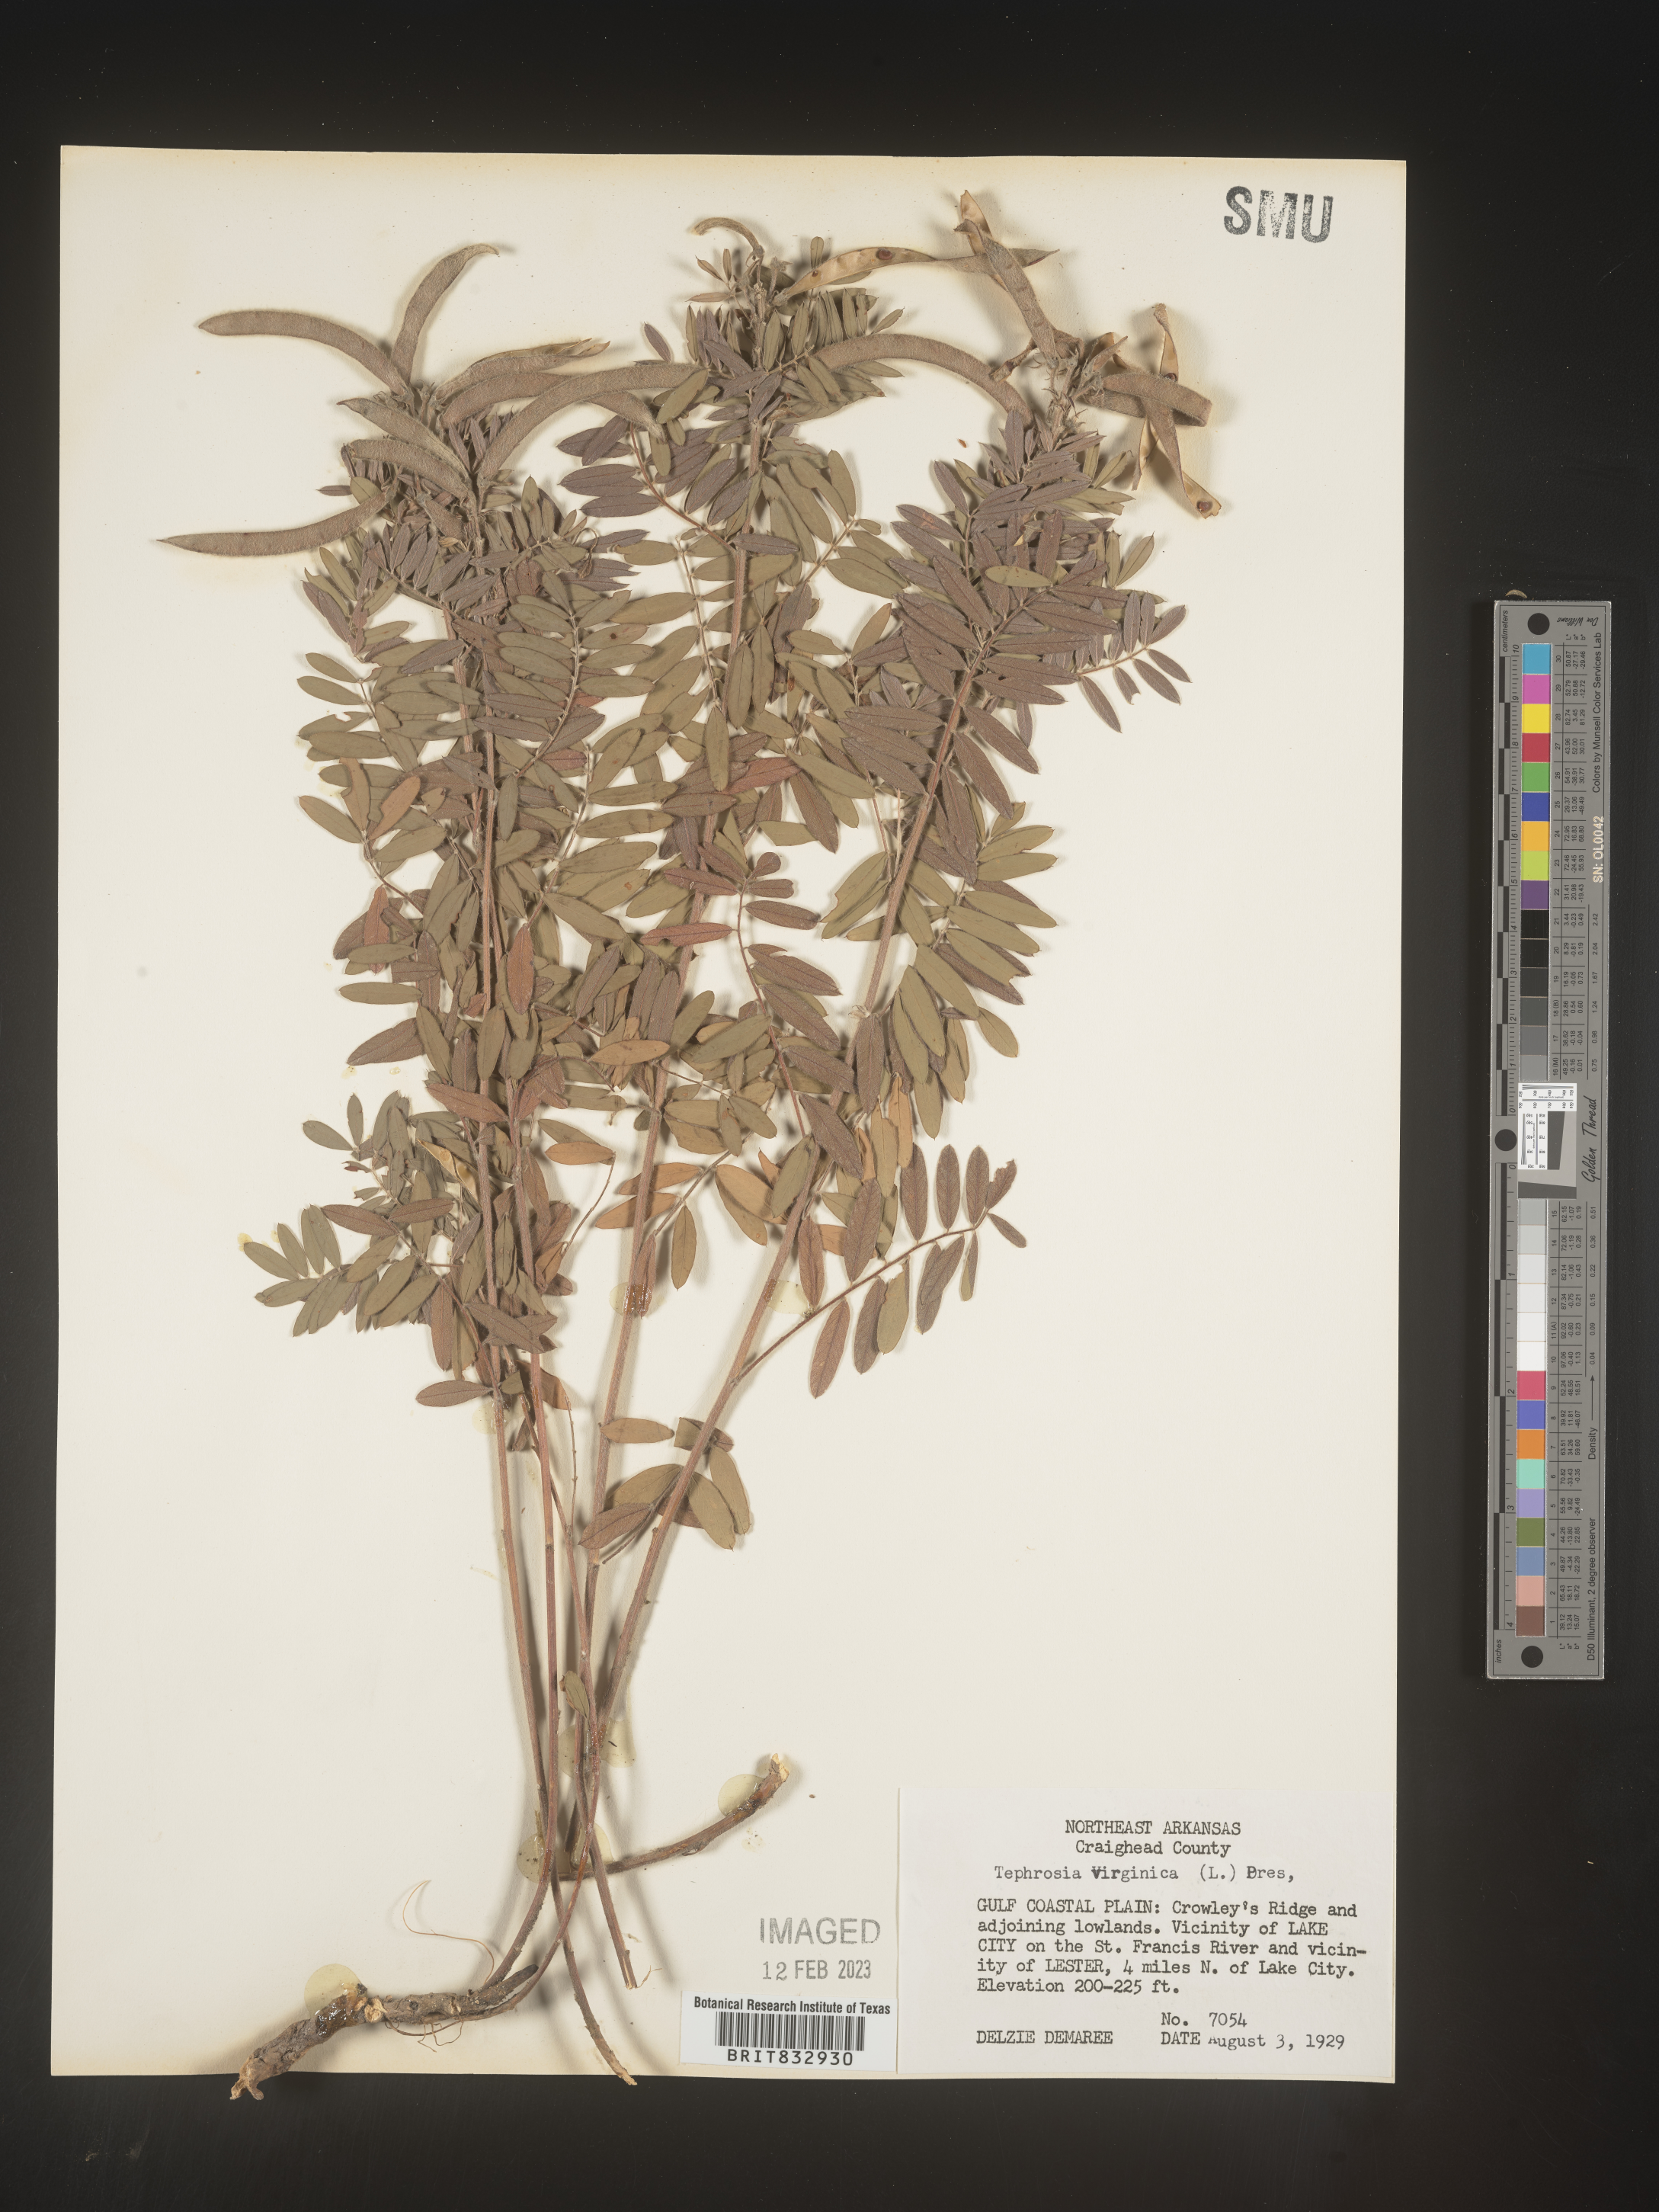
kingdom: Plantae
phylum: Tracheophyta
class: Magnoliopsida
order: Fabales
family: Fabaceae
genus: Tephrosia
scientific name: Tephrosia virginiana
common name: Rabbit-pea
